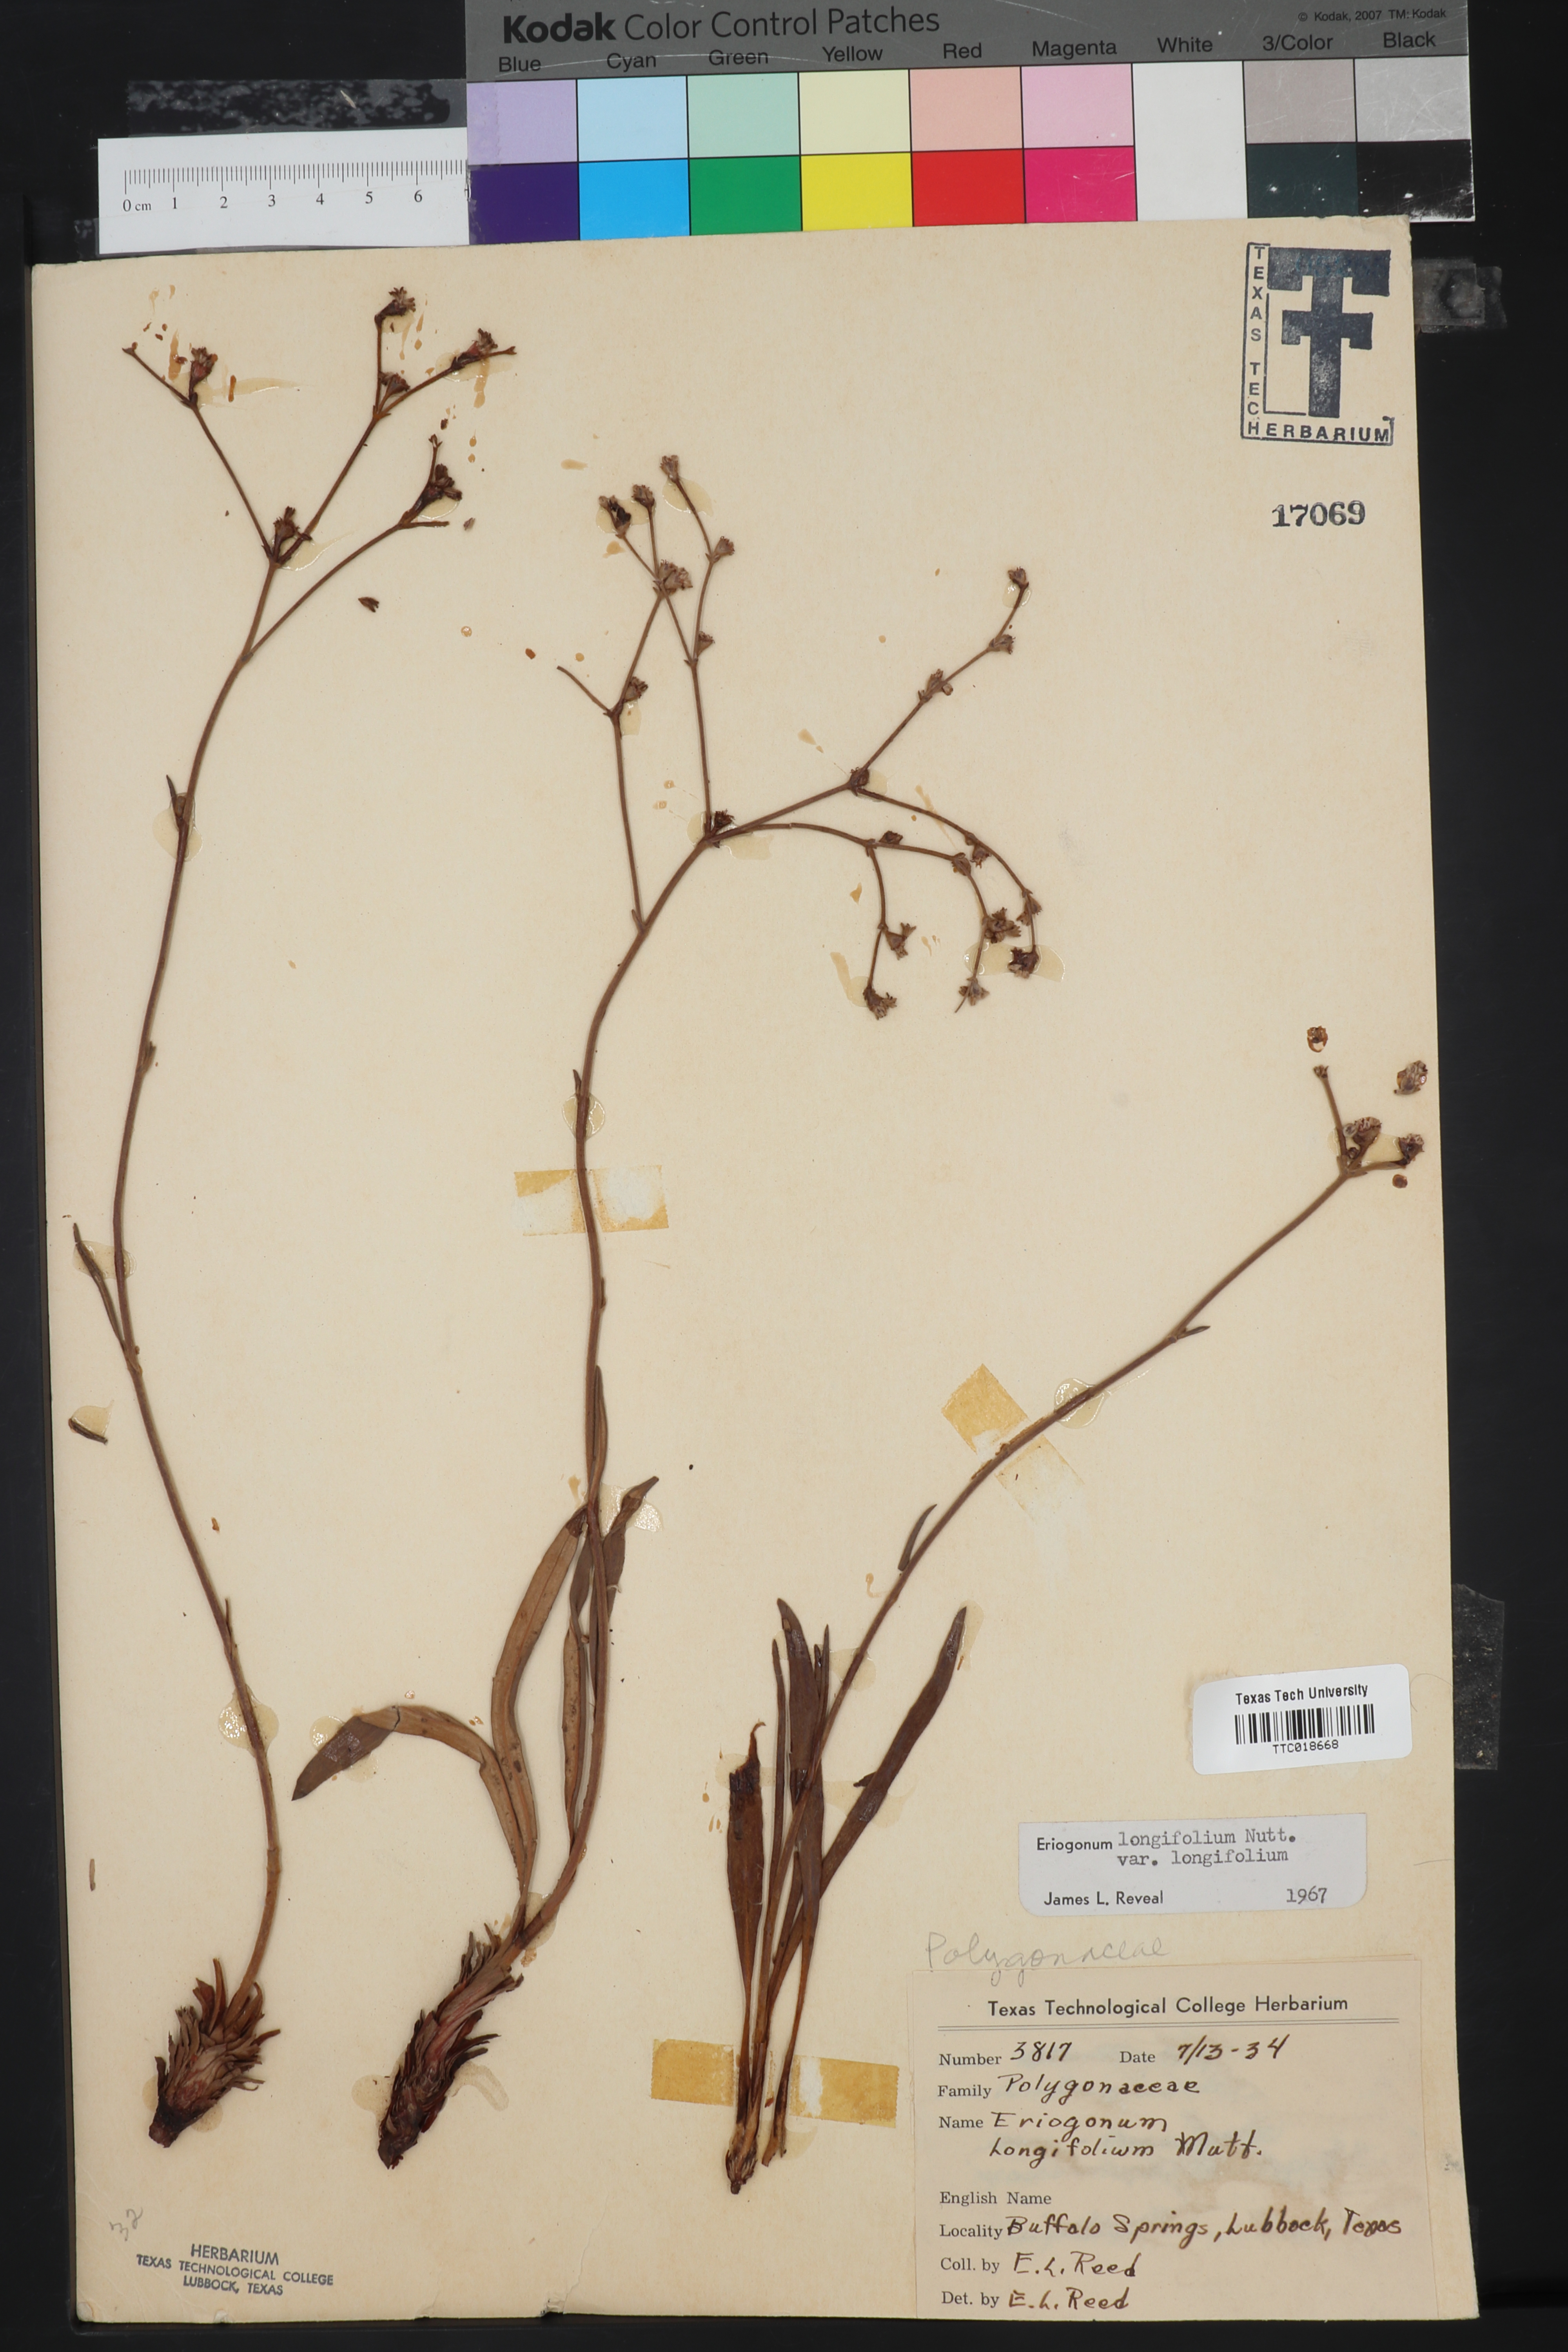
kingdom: Plantae
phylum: Tracheophyta
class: Magnoliopsida
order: Caryophyllales
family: Polygonaceae
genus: Eriogonum
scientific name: Eriogonum longifolium
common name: Longleaf wild buckwheat
